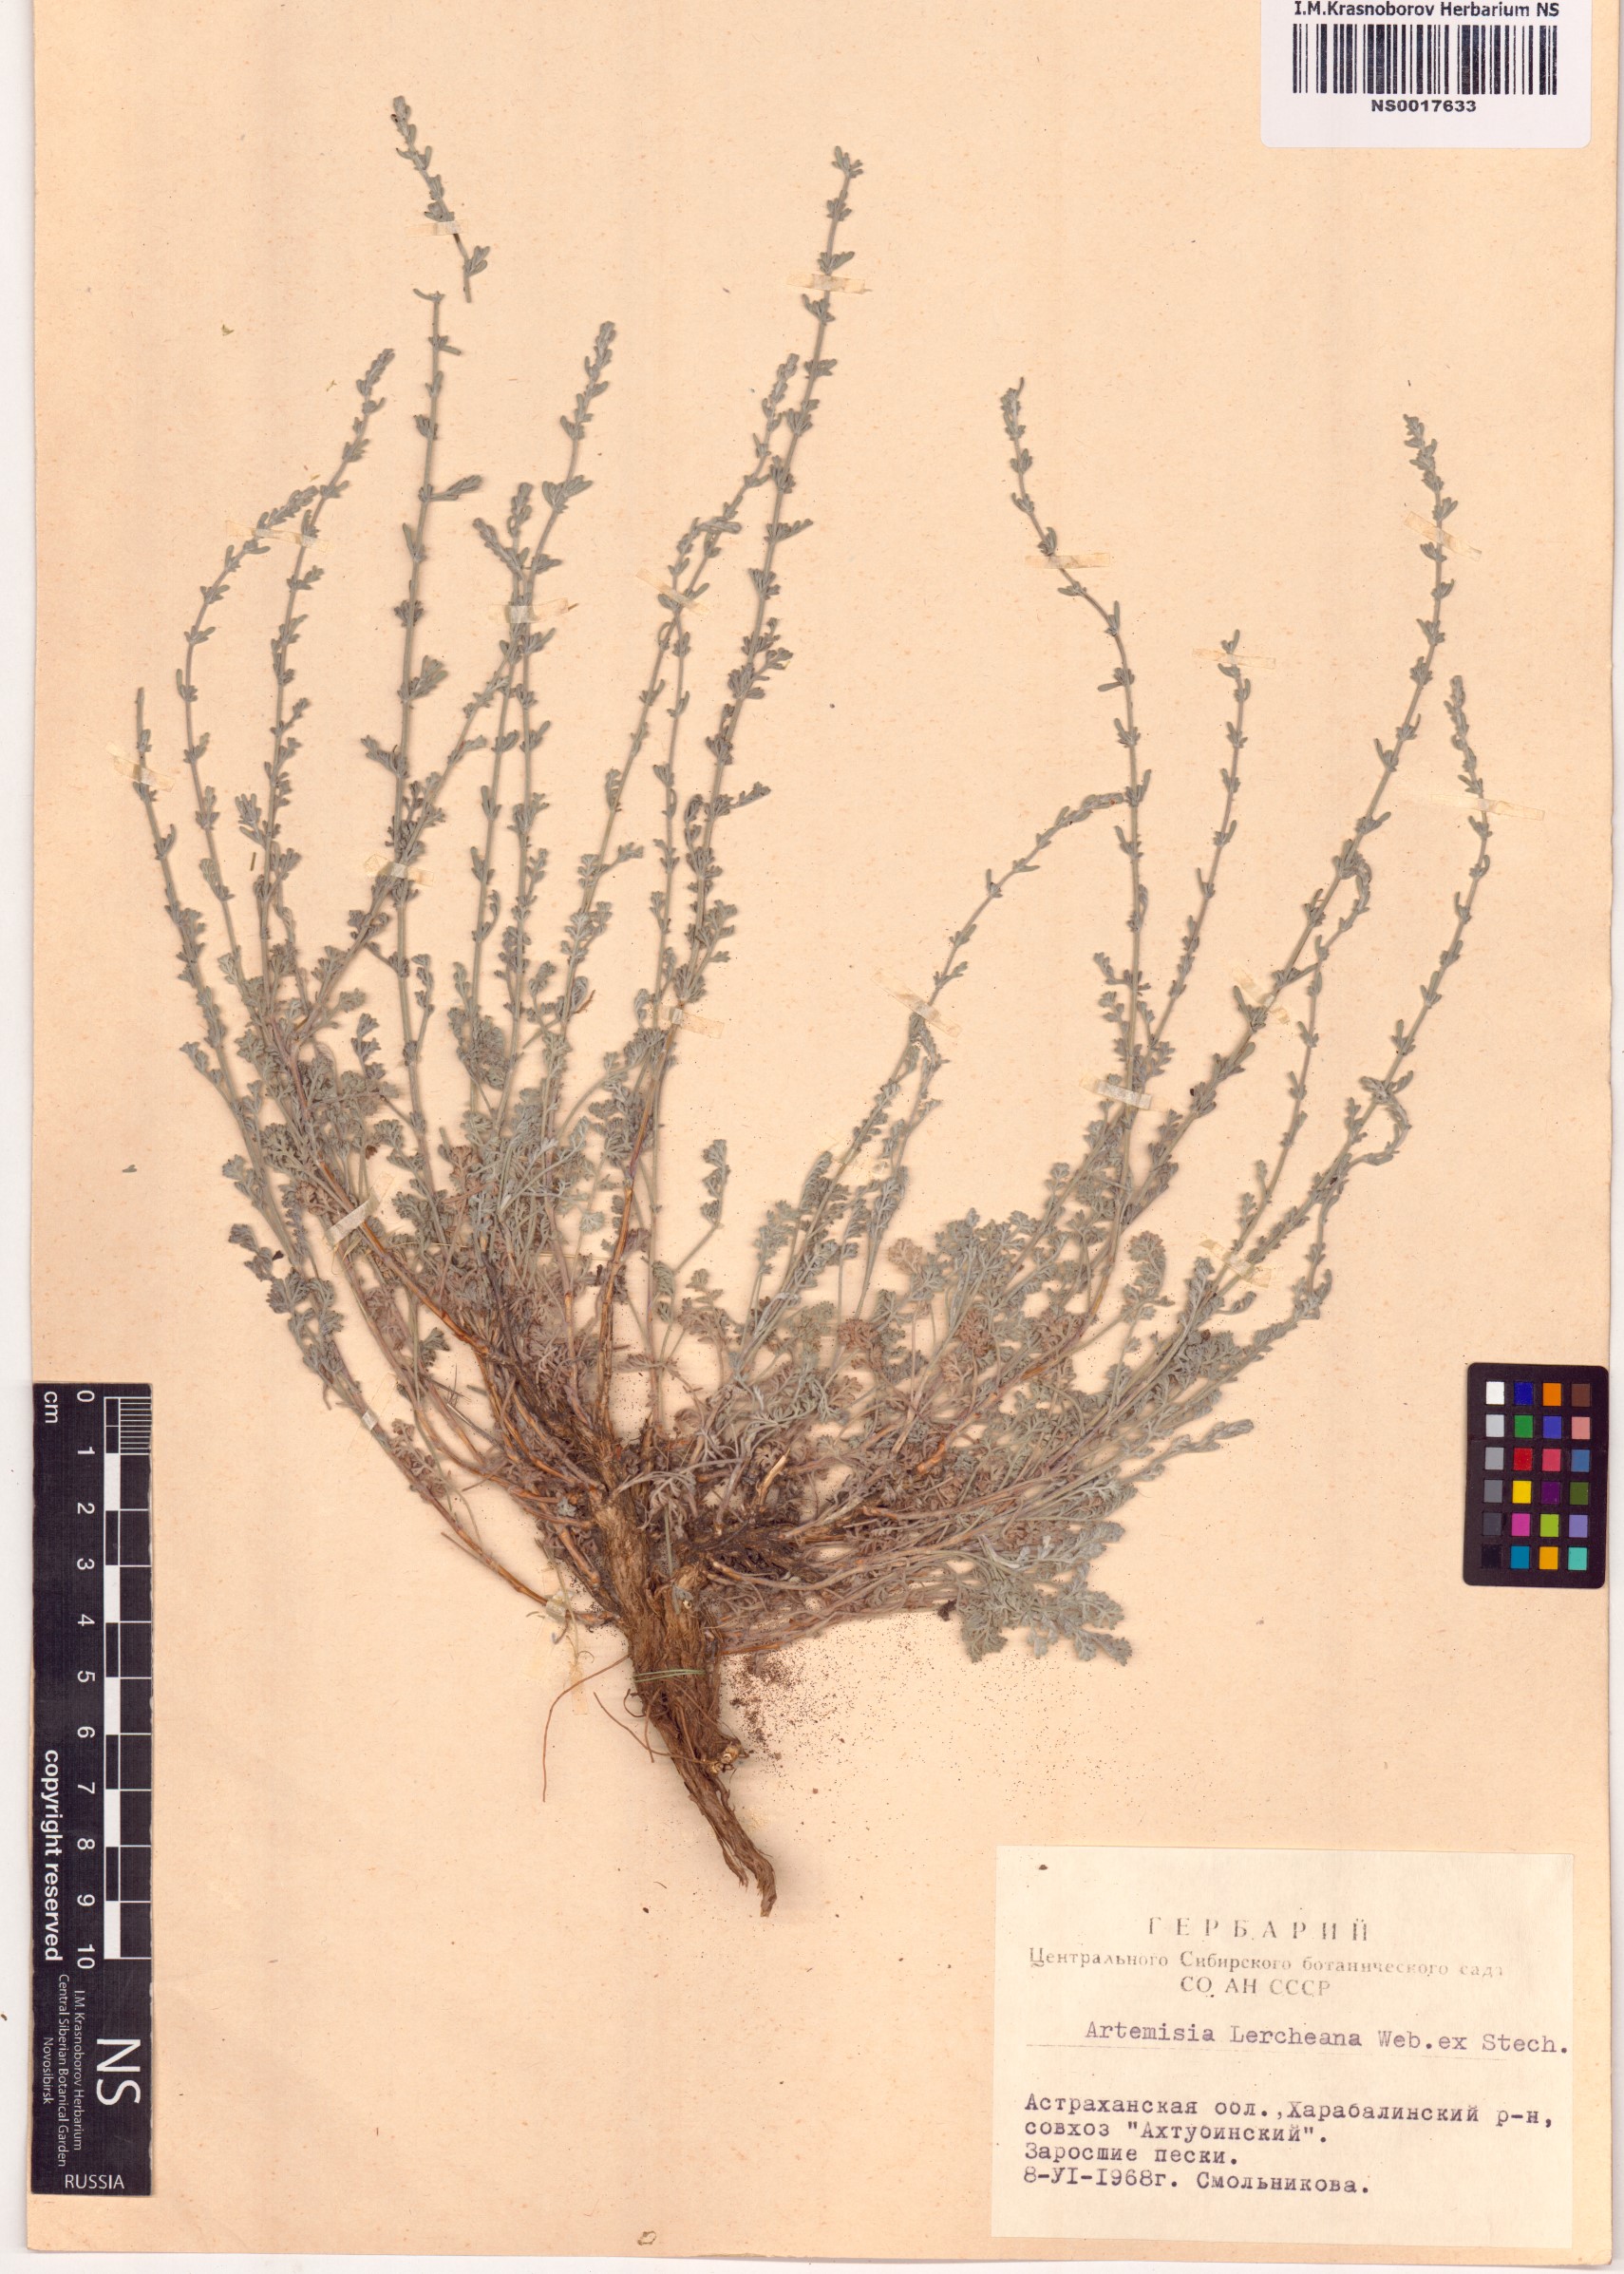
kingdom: Plantae
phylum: Tracheophyta
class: Magnoliopsida
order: Asterales
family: Asteraceae
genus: Artemisia
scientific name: Artemisia lercheana
